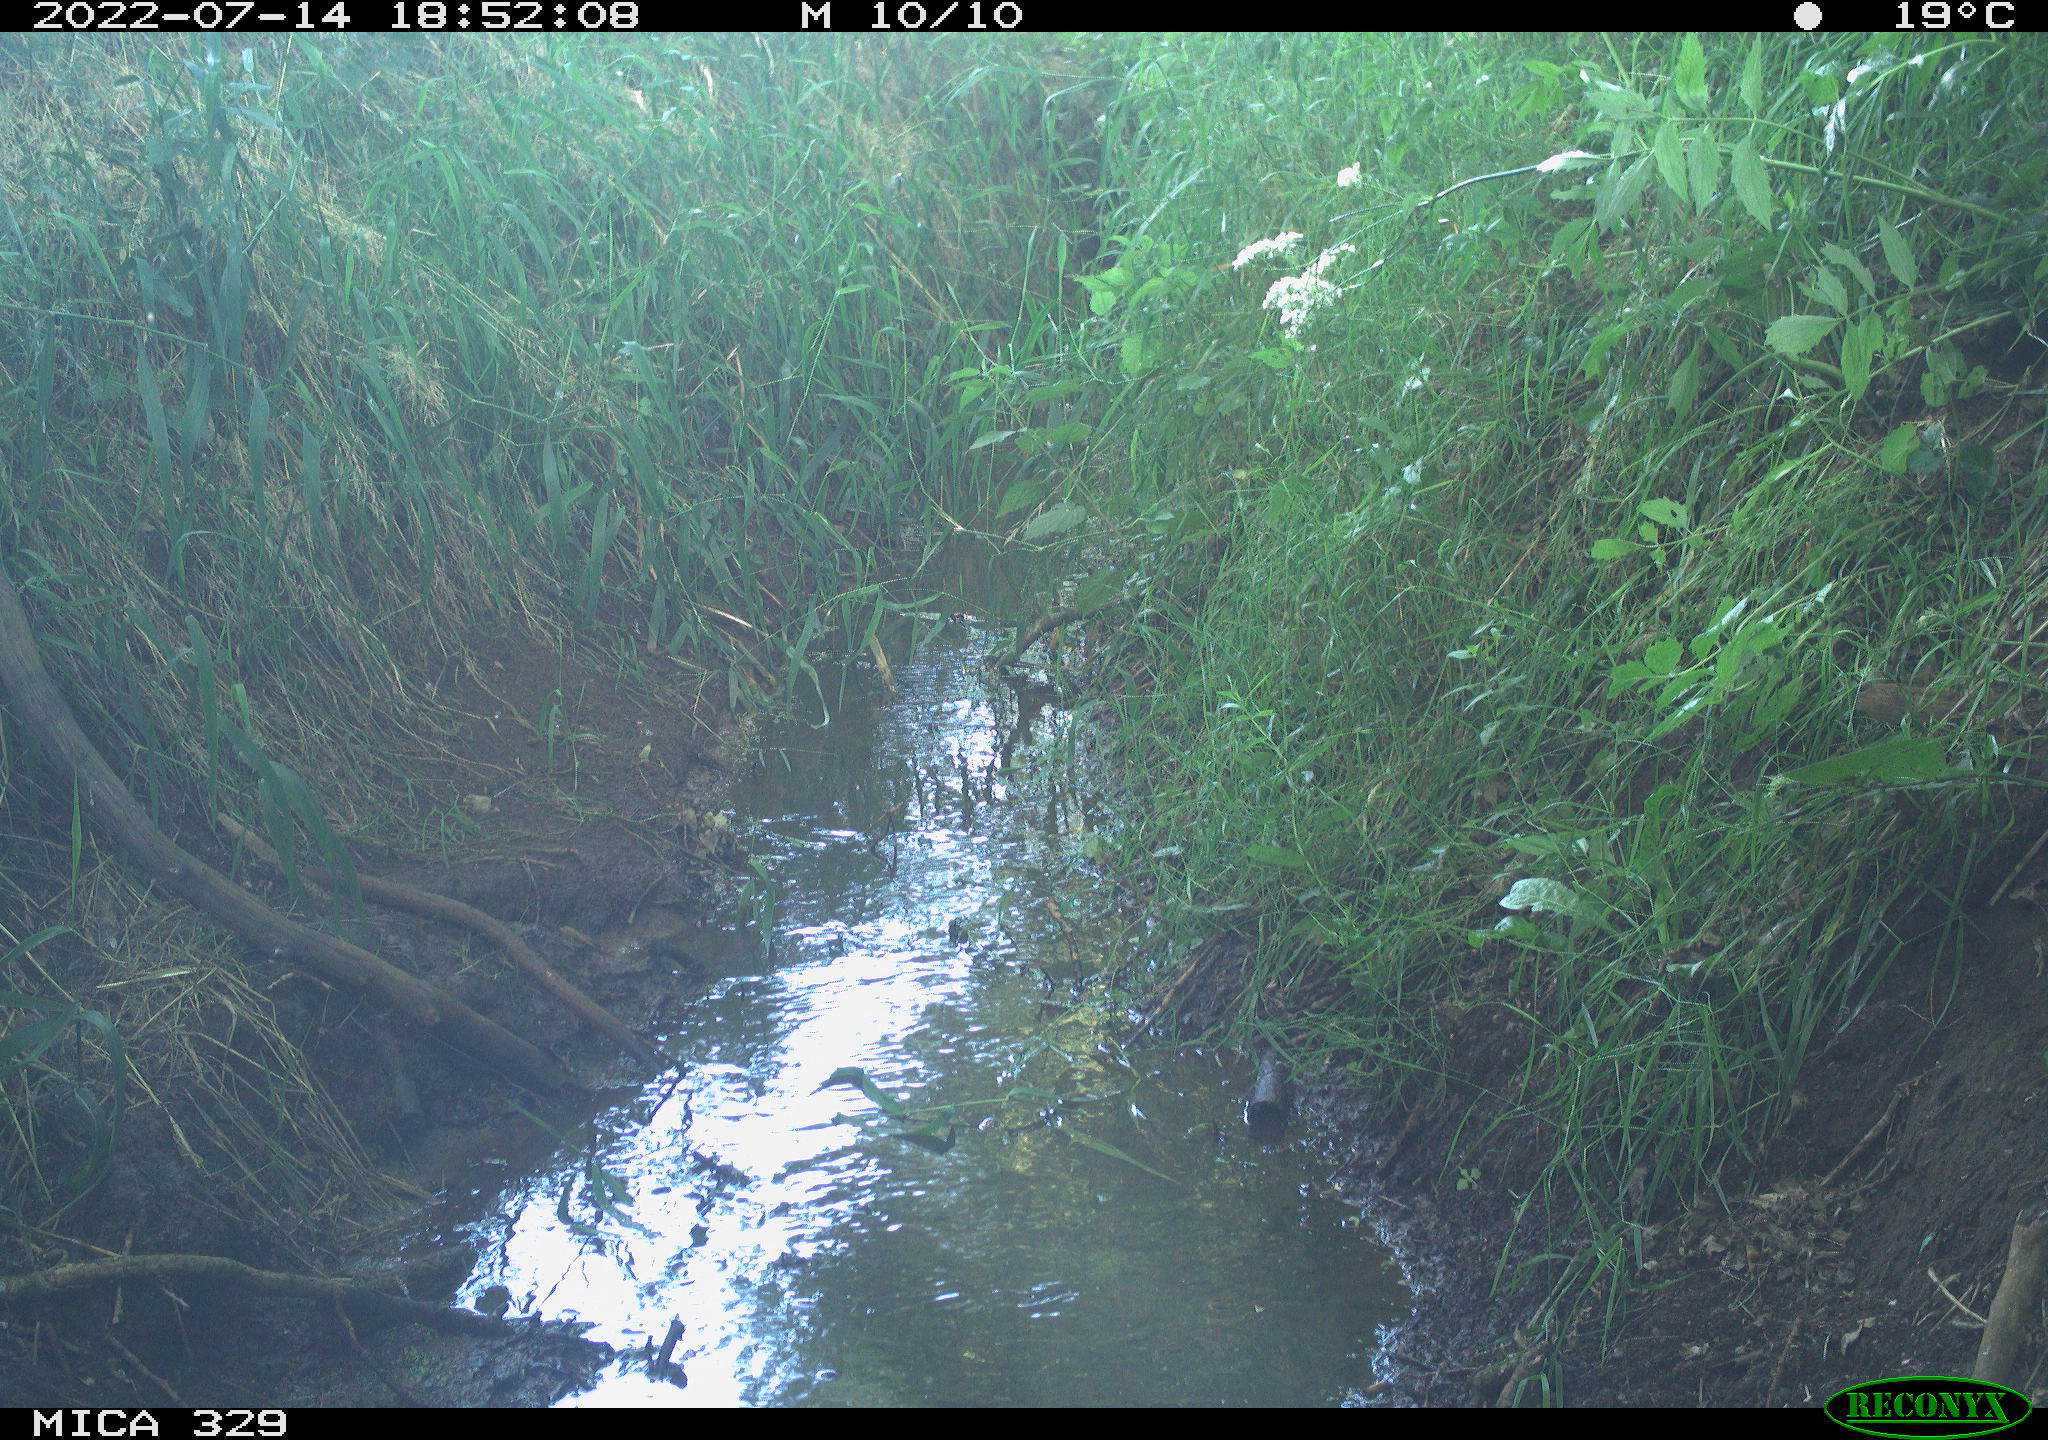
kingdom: Animalia
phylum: Chordata
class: Aves
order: Galliformes
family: Phasianidae
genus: Phasianus
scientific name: Phasianus colchicus
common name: Common pheasant
